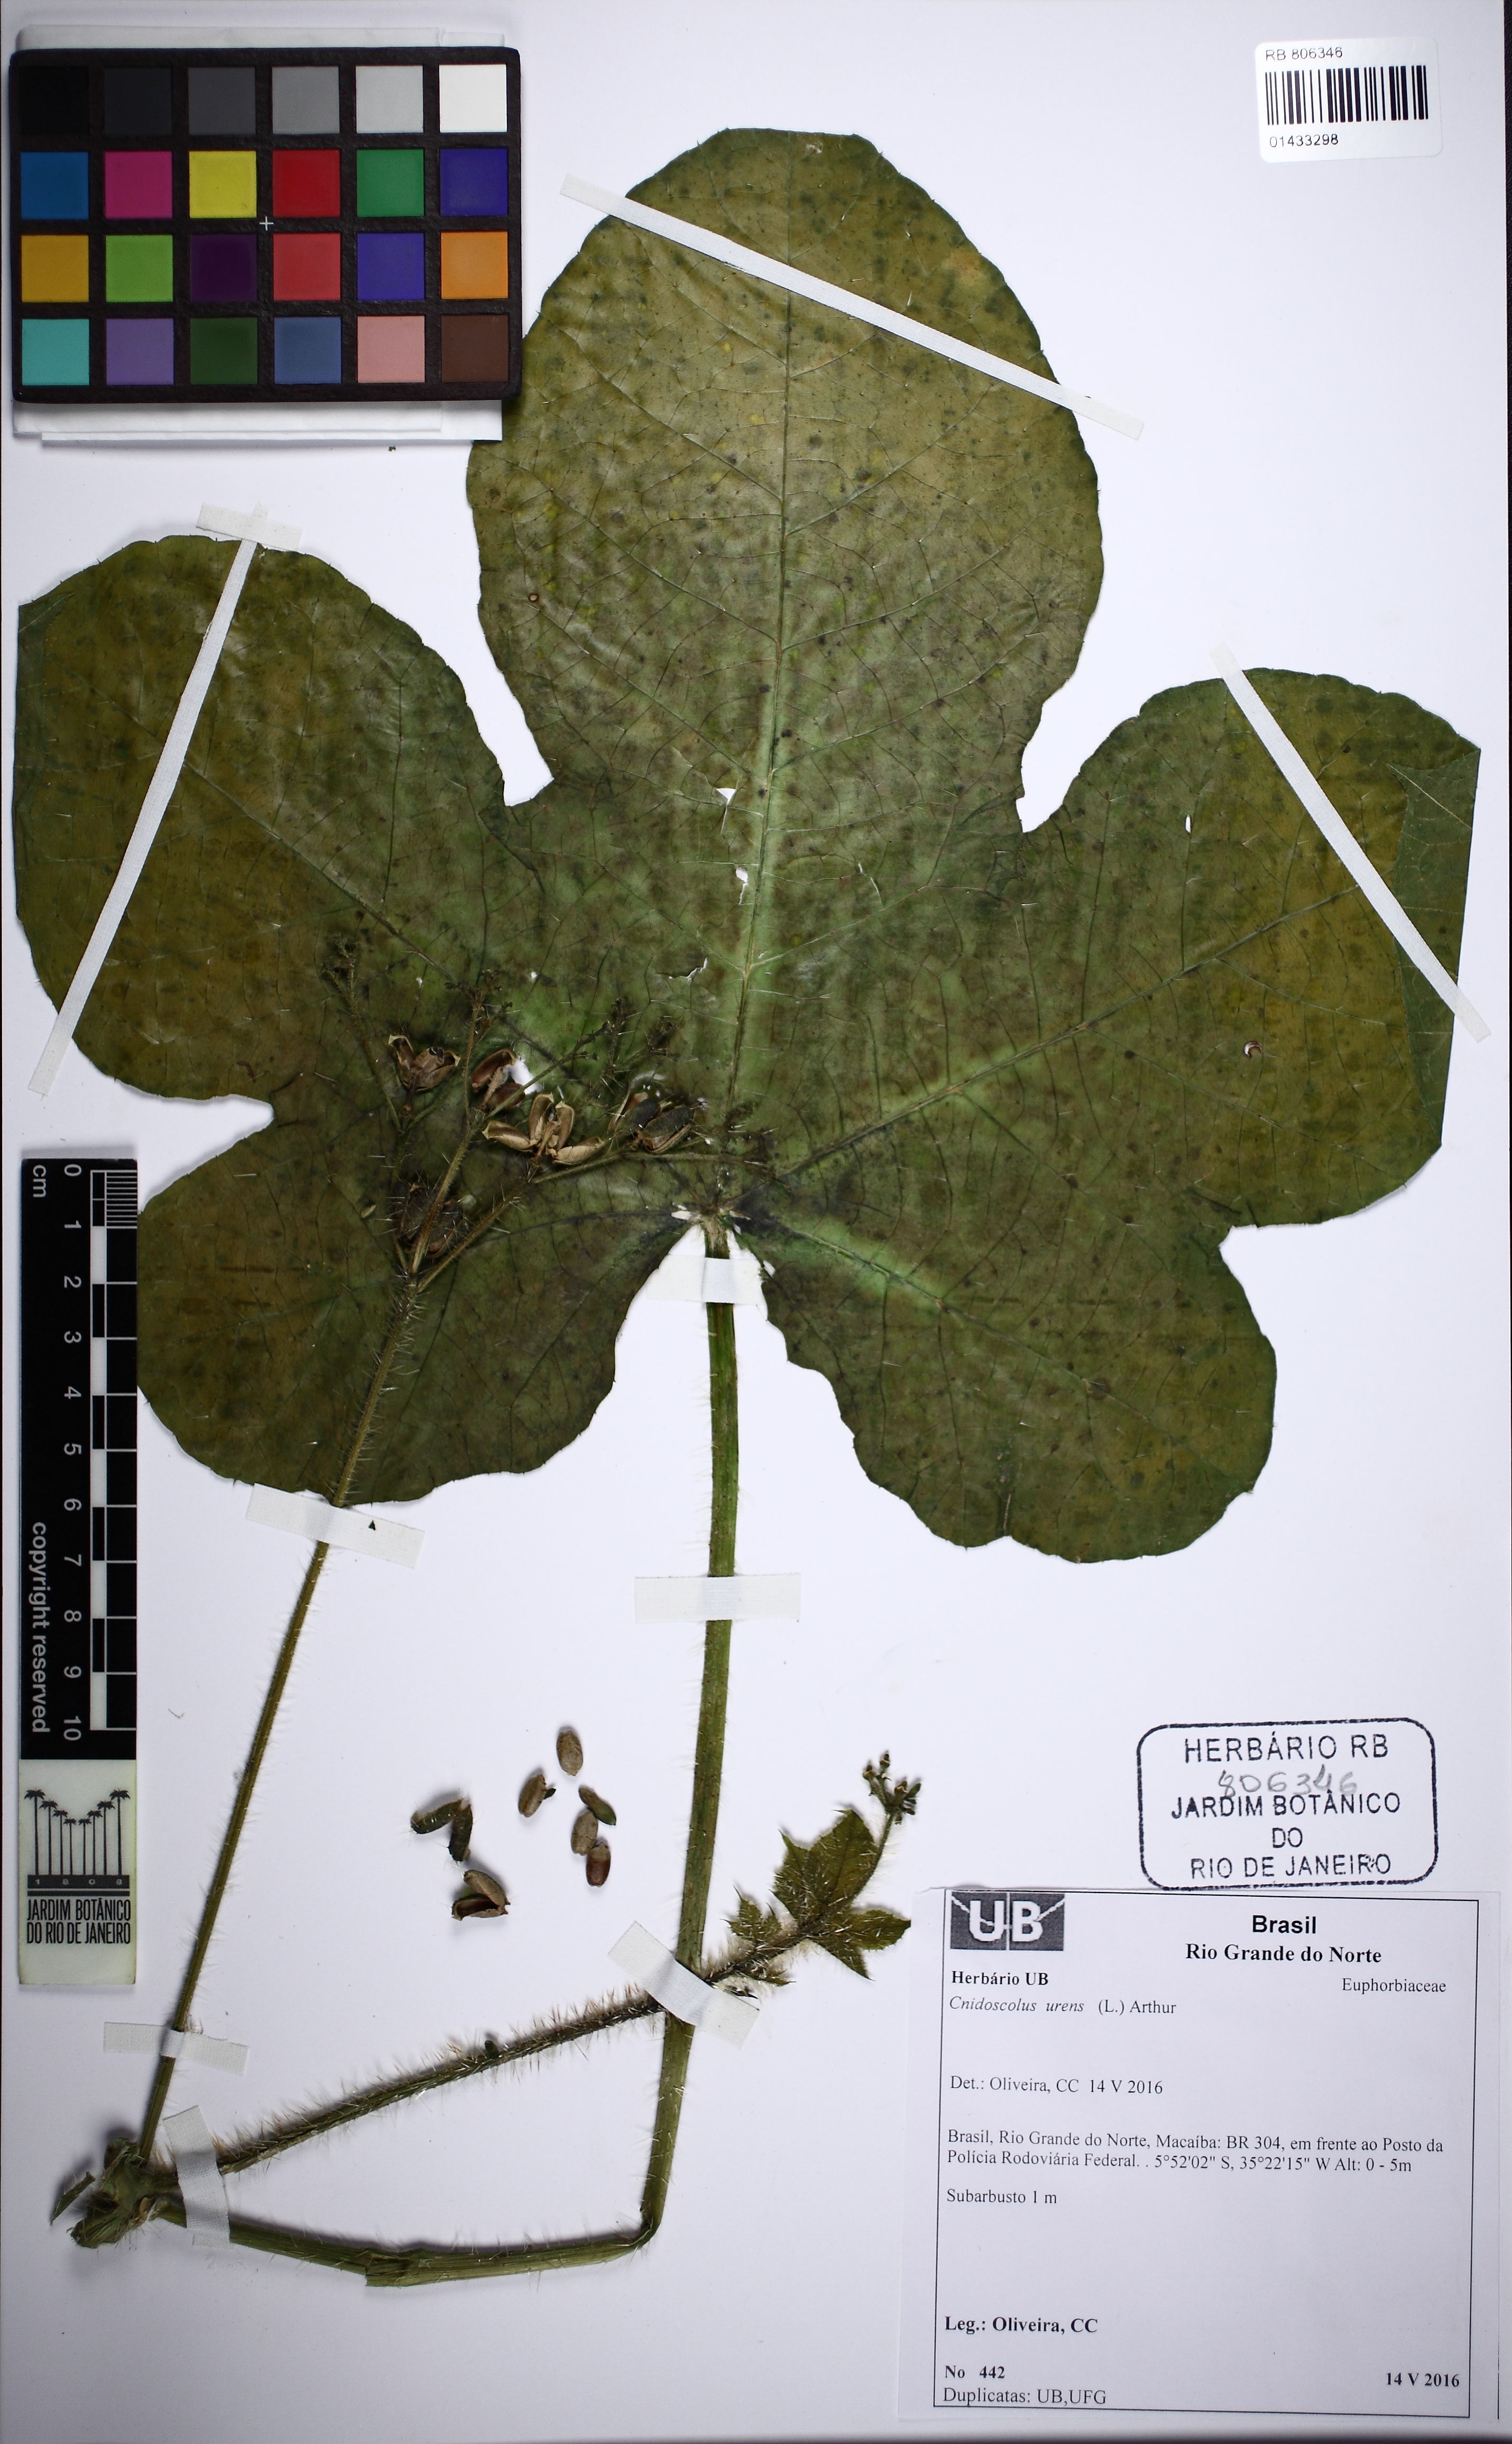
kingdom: Plantae
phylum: Tracheophyta
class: Magnoliopsida
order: Malpighiales
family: Euphorbiaceae
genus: Cnidoscolus
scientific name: Cnidoscolus urens
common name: Bull-nettle
